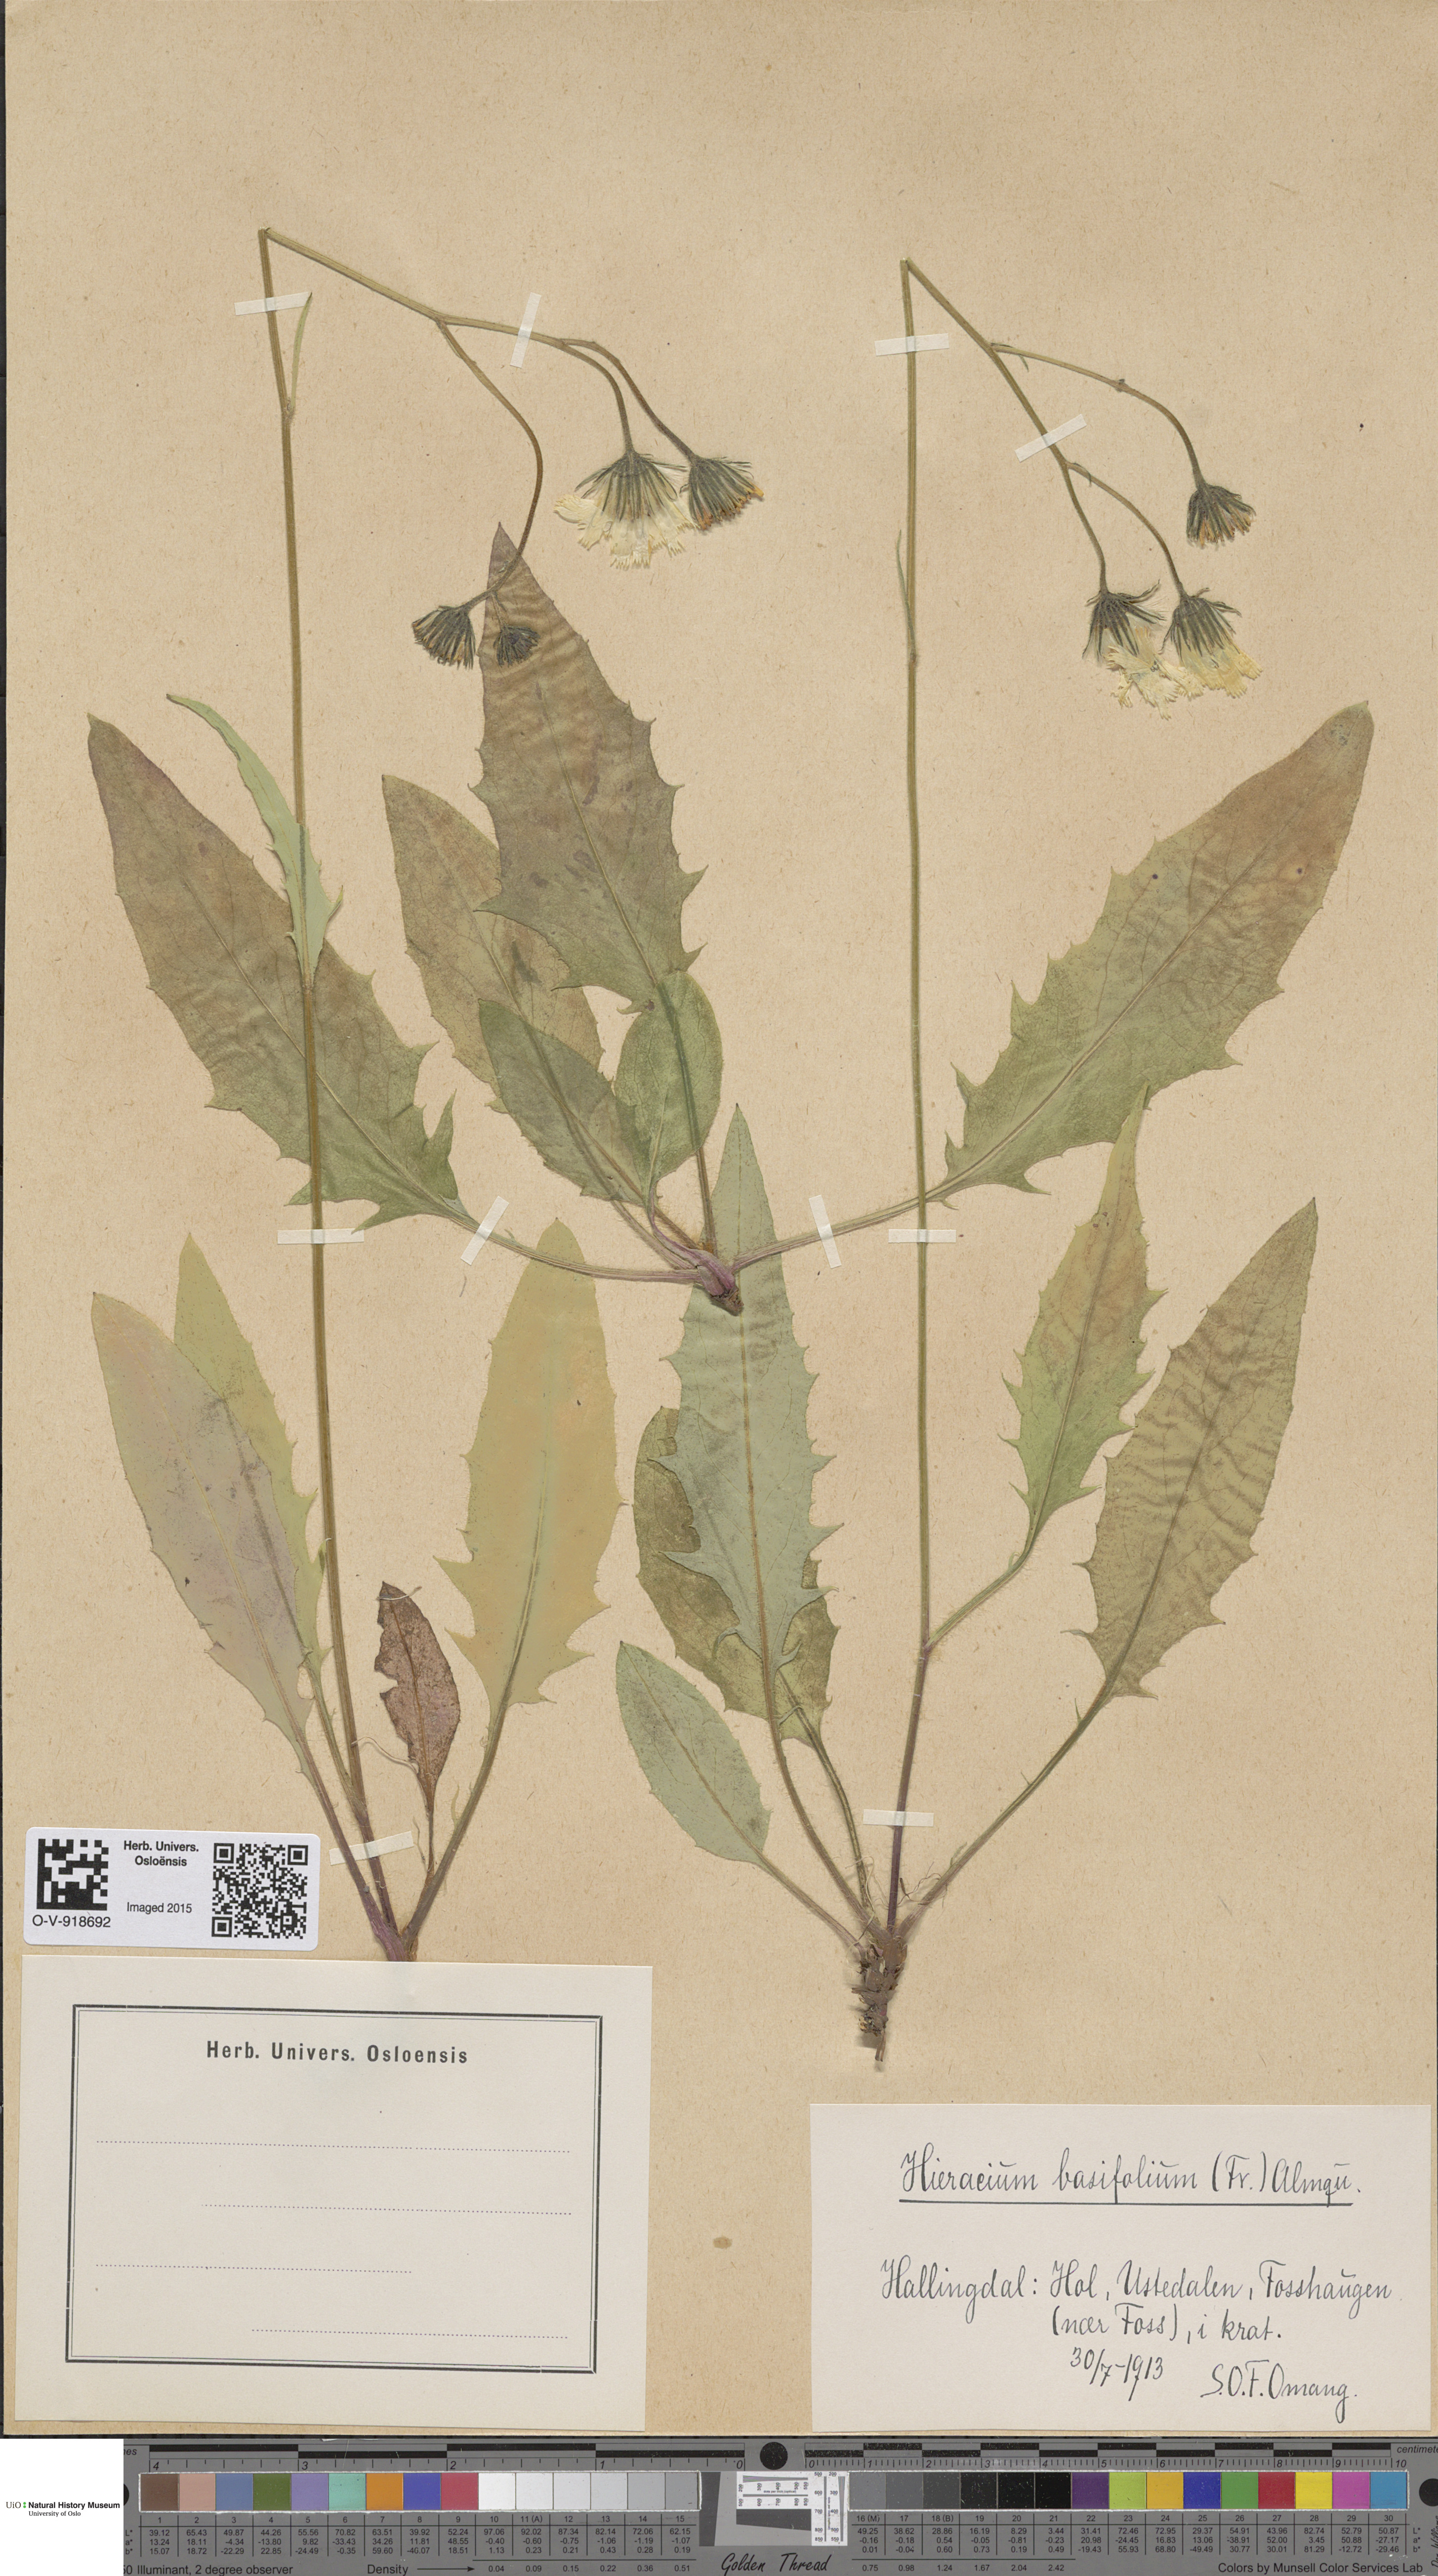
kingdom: Plantae
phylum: Tracheophyta
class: Magnoliopsida
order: Asterales
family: Asteraceae
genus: Hieracium
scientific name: Hieracium basifolium
